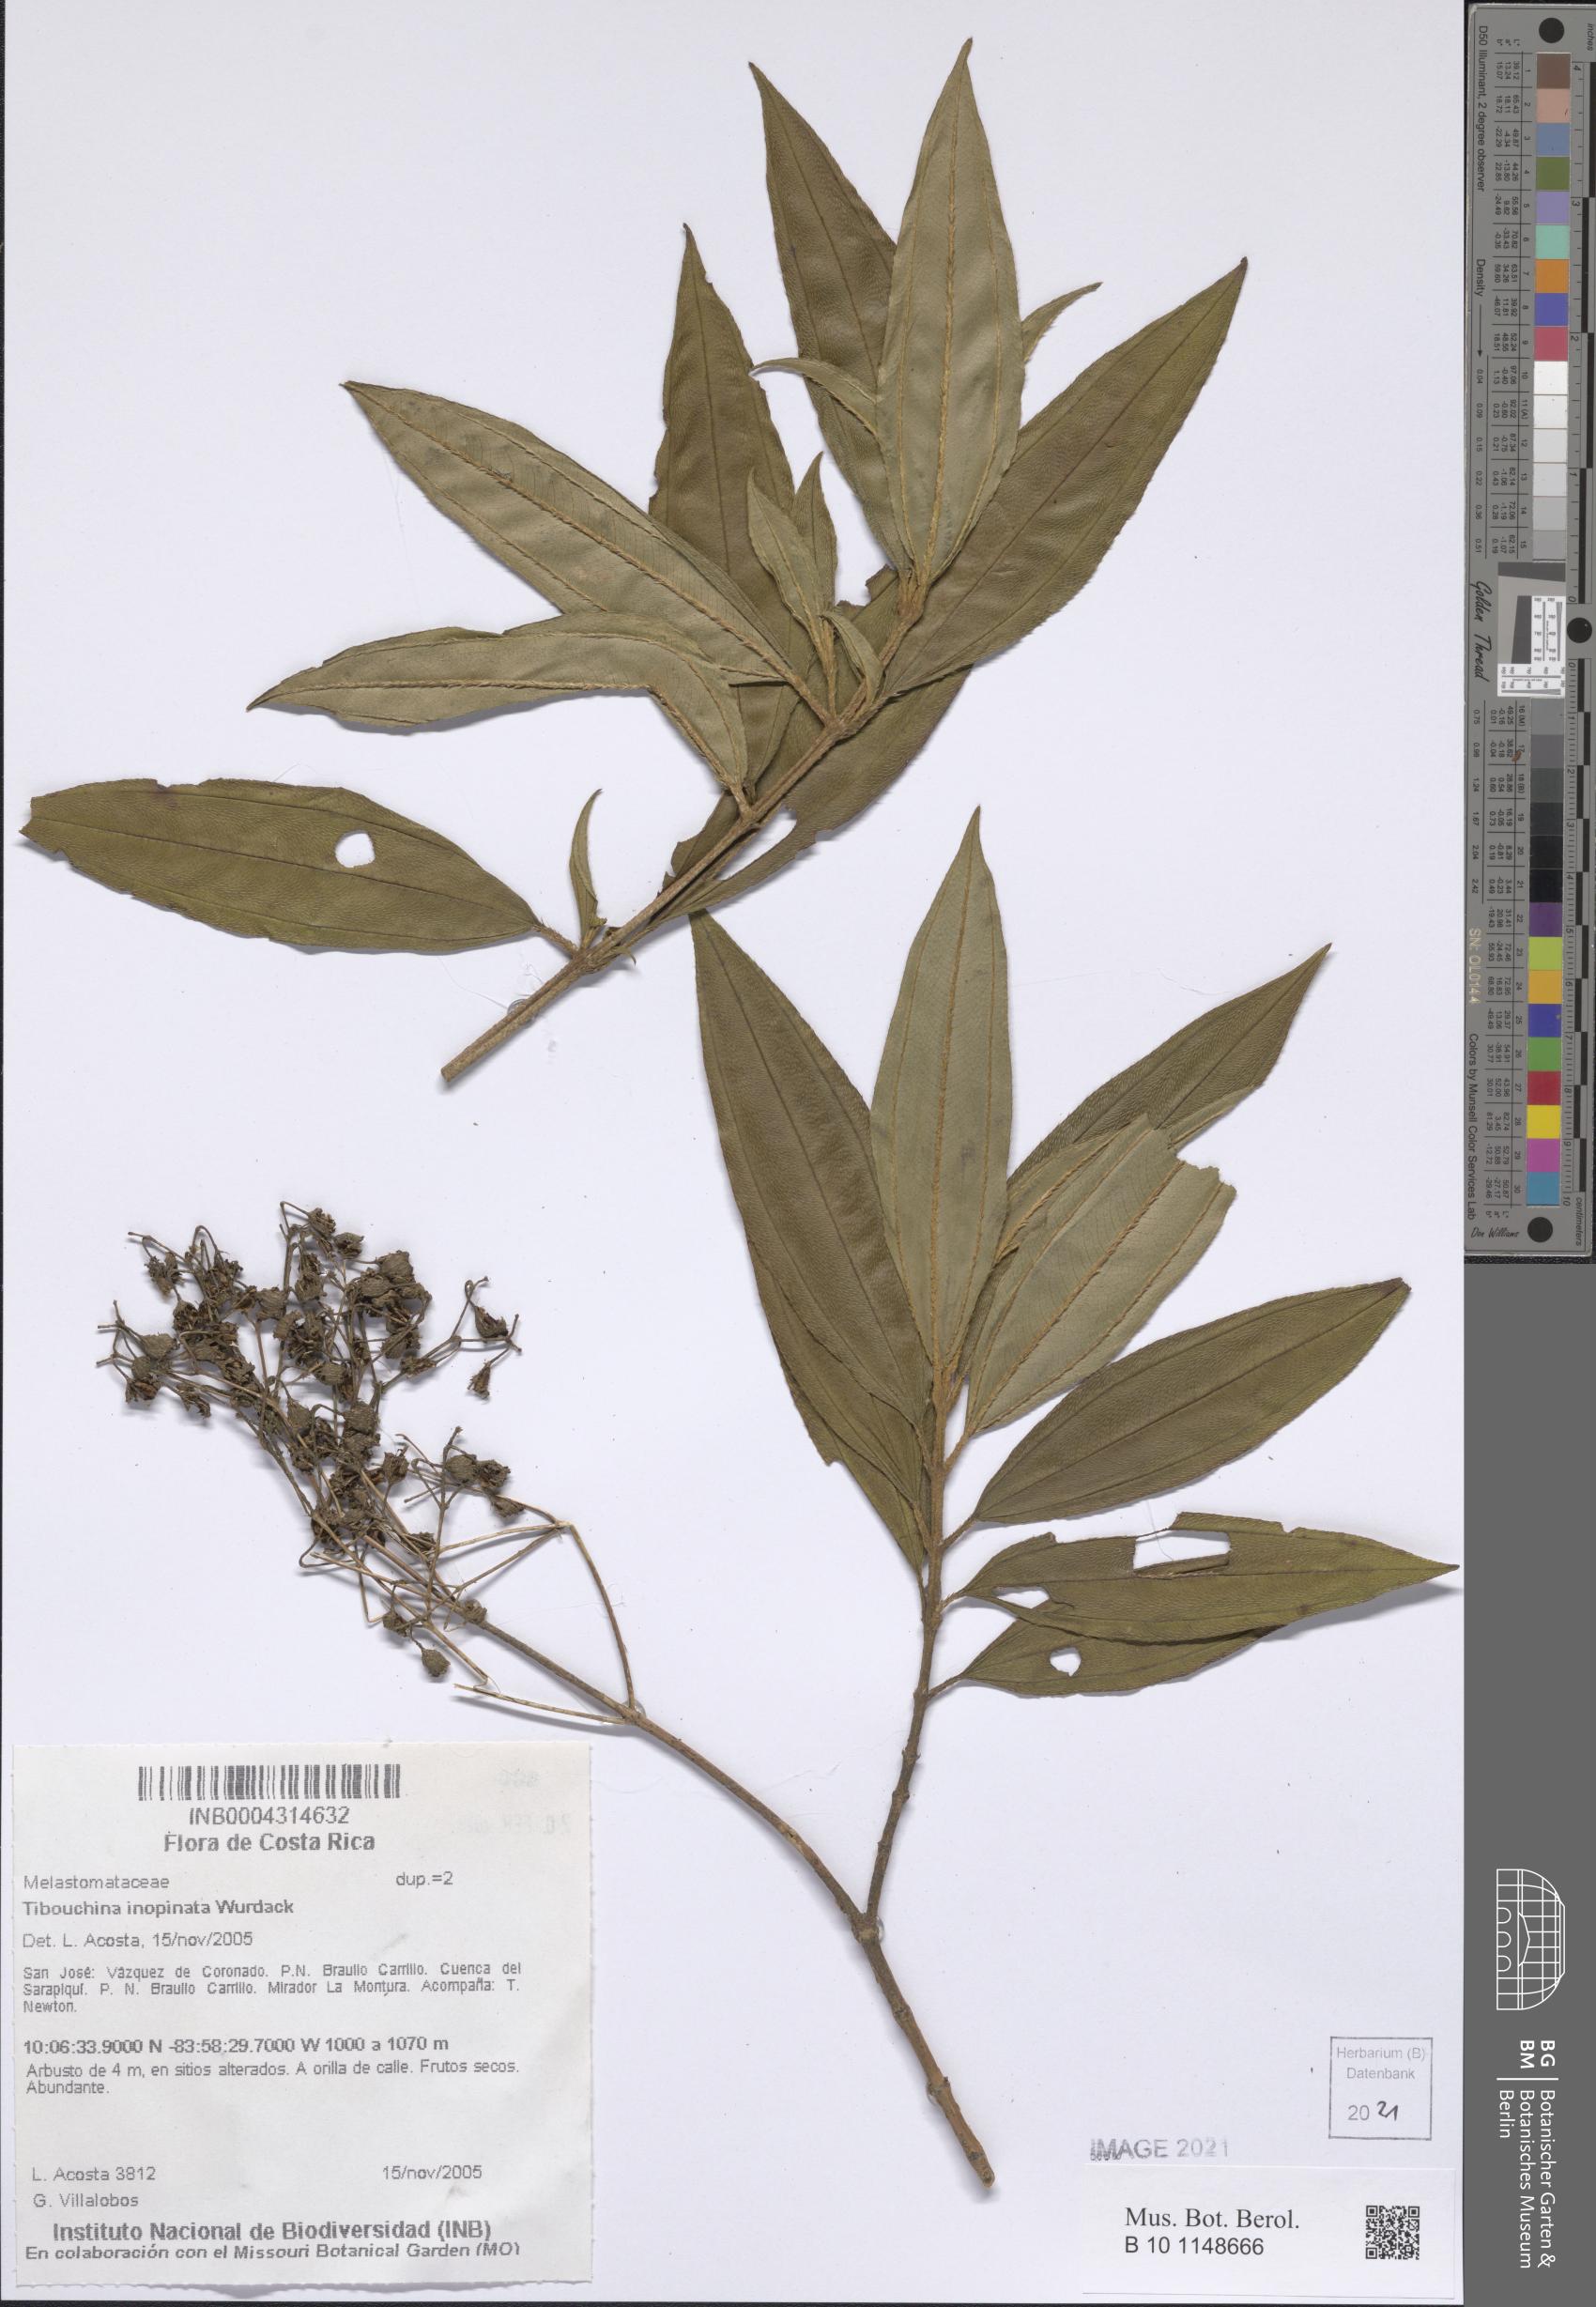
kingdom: Plantae
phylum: Tracheophyta
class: Magnoliopsida
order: Myrtales
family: Melastomataceae
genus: Andesanthus
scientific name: Andesanthus inopinatus
